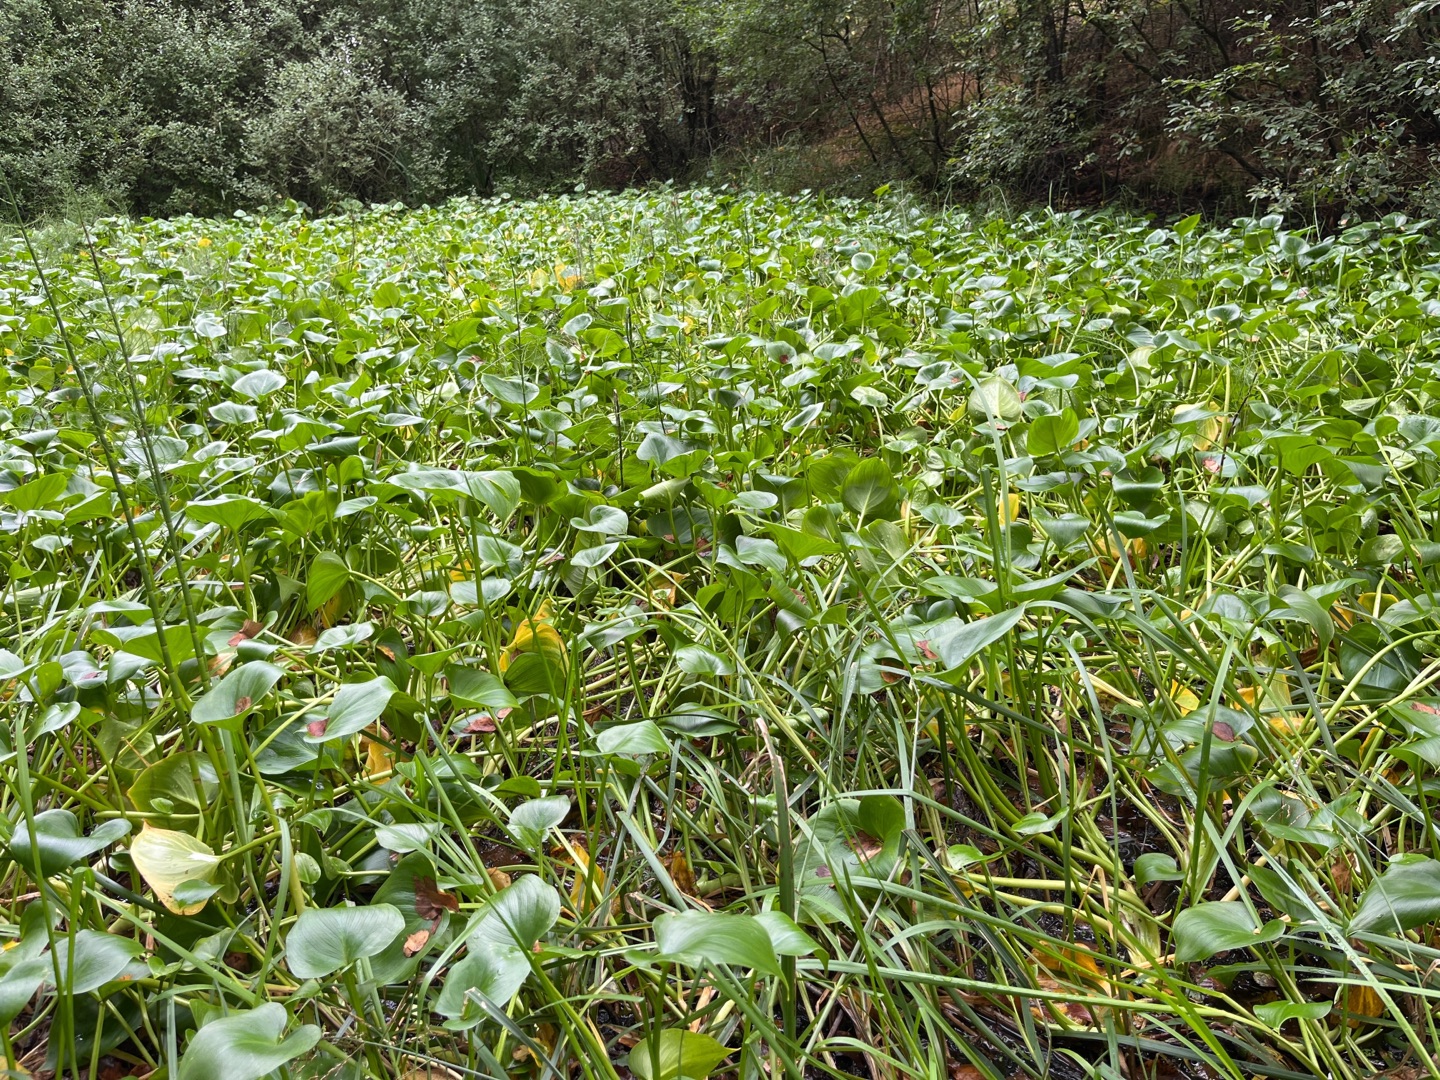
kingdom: Plantae
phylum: Tracheophyta
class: Liliopsida
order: Alismatales
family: Araceae
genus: Calla
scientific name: Calla palustris
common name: Kærmysse
